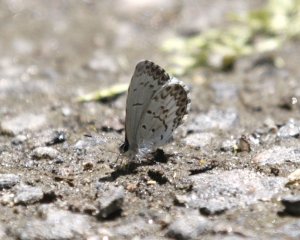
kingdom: Animalia
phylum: Arthropoda
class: Insecta
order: Lepidoptera
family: Lycaenidae
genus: Cyaniris
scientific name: Cyaniris neglecta
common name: Summer Azure
